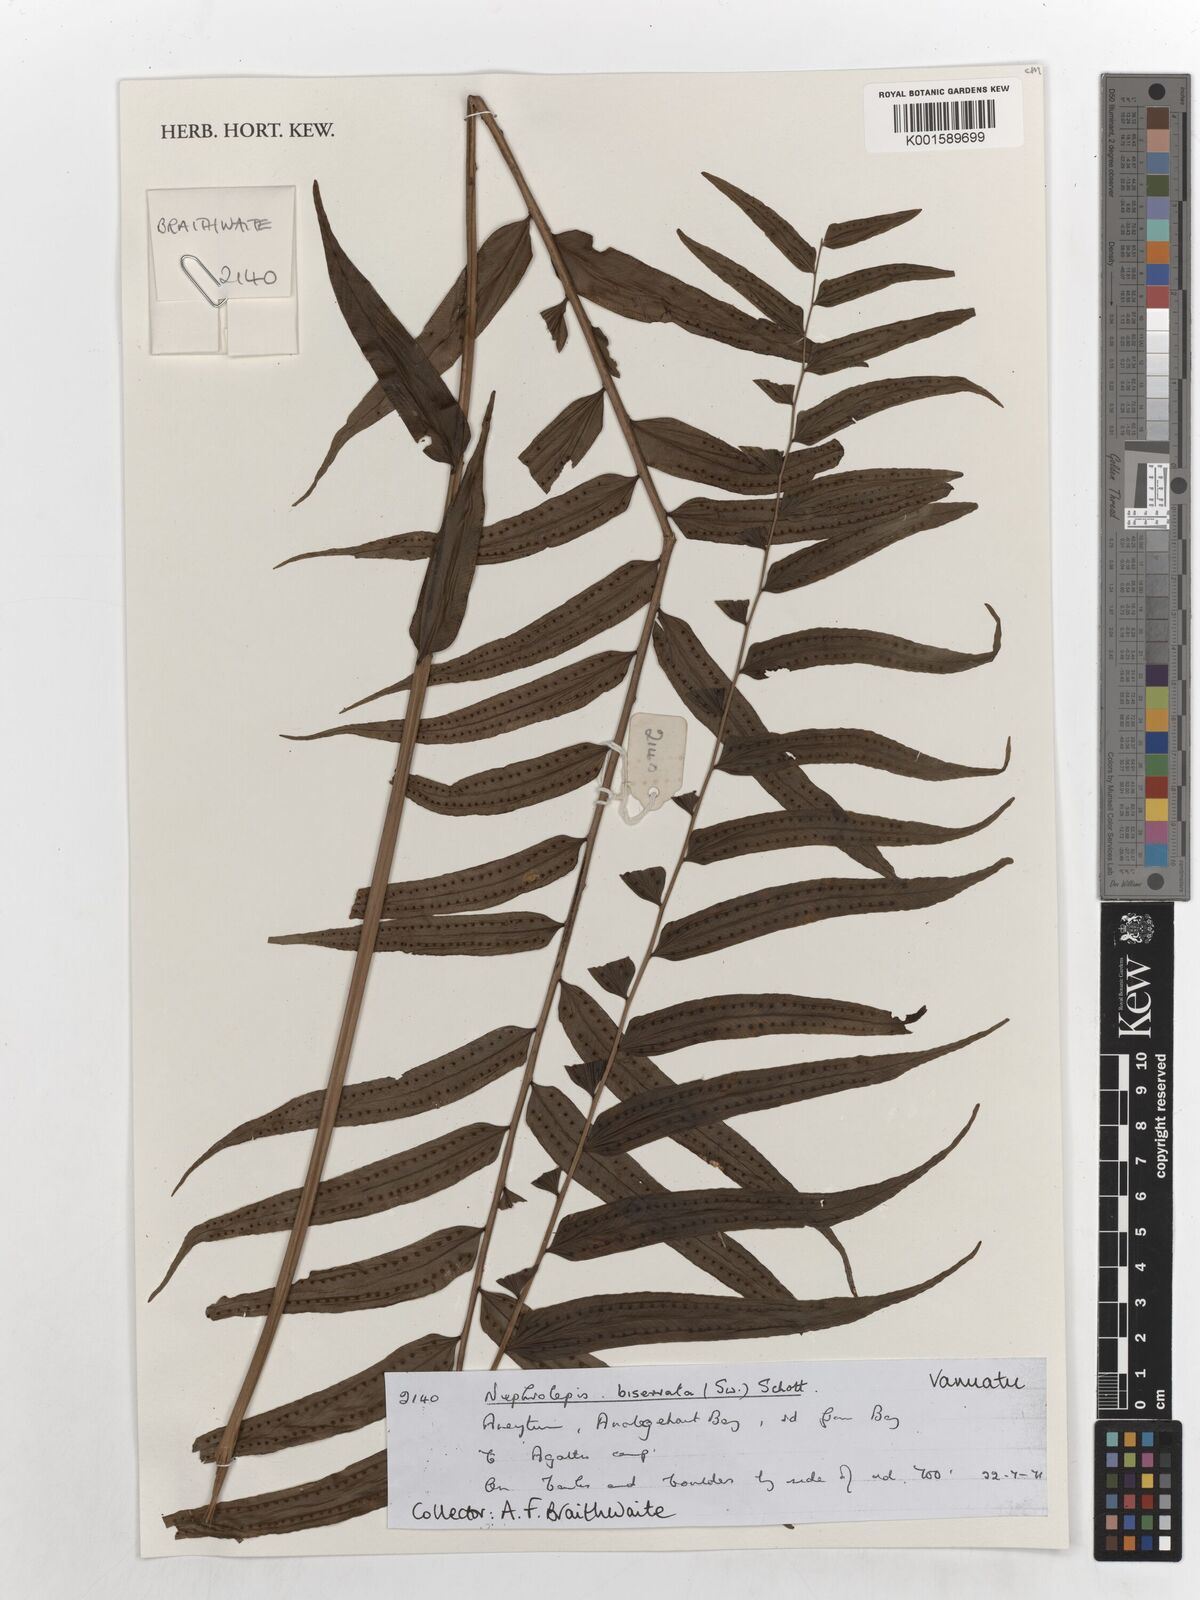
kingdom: Plantae
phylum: Tracheophyta
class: Polypodiopsida
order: Polypodiales
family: Nephrolepidaceae
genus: Nephrolepis
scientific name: Nephrolepis biserrata
